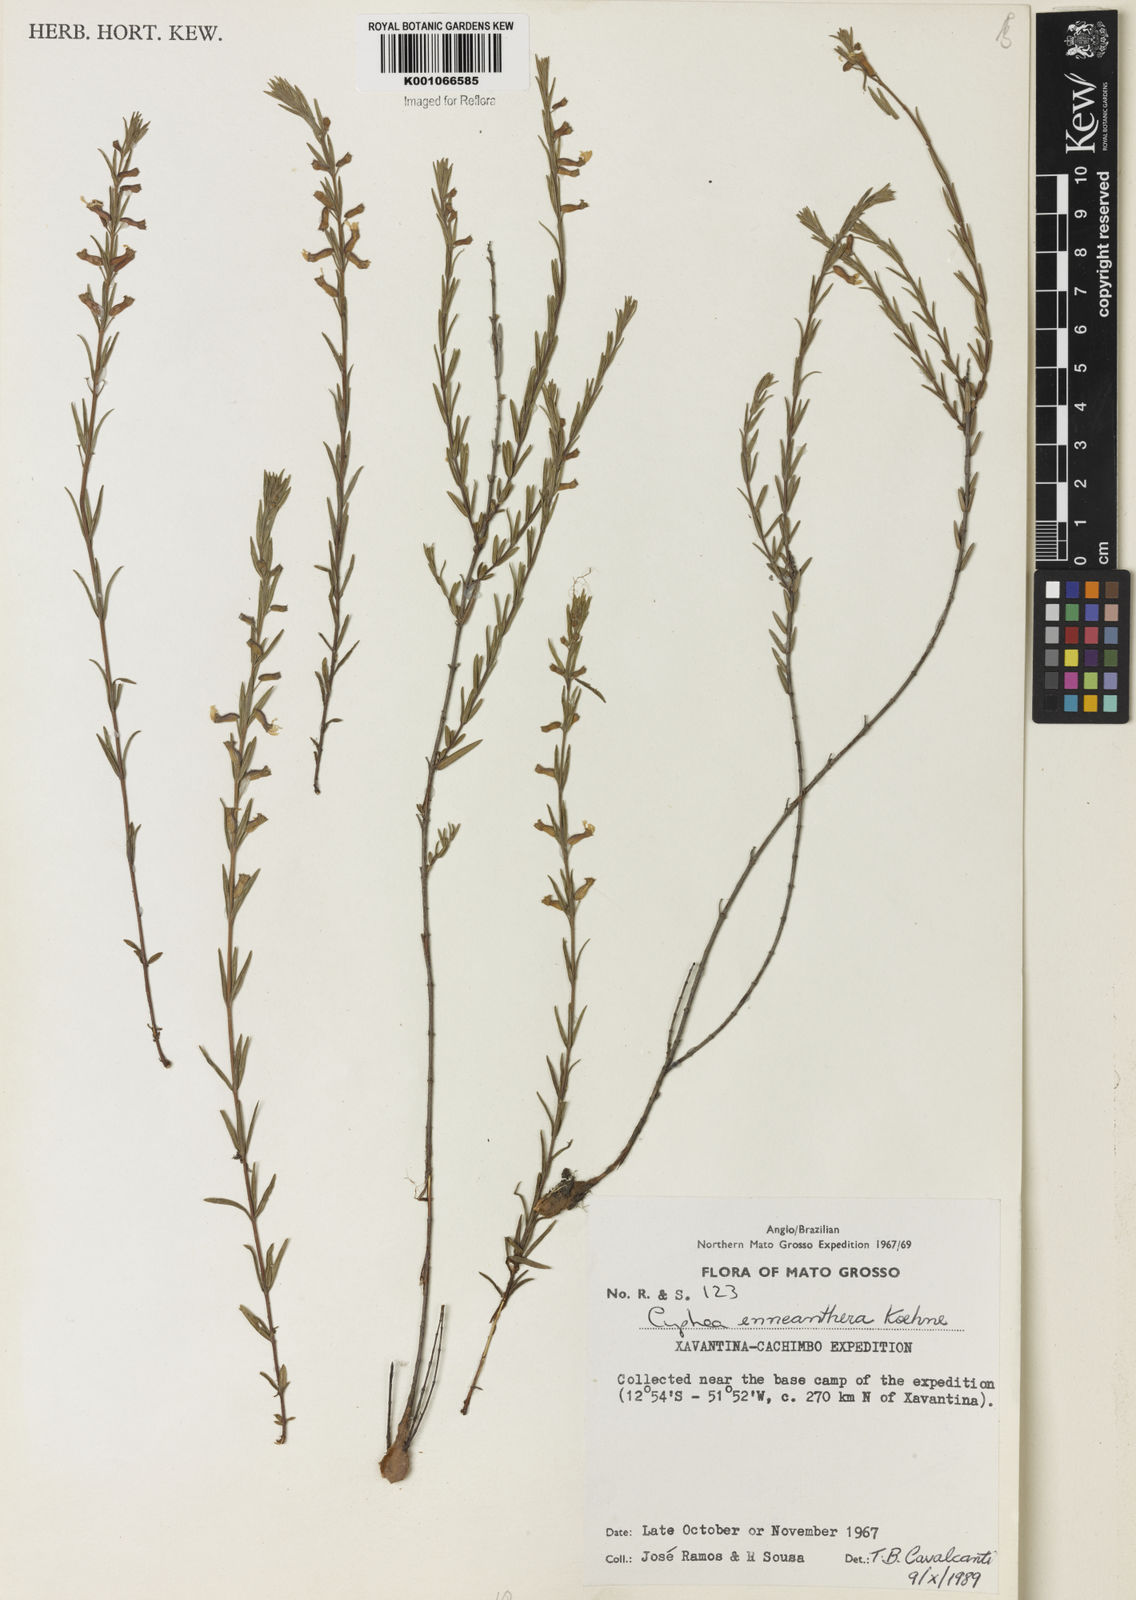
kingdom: Plantae
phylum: Tracheophyta
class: Magnoliopsida
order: Myrtales
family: Lythraceae
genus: Cuphea
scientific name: Cuphea retrorsicapilla
